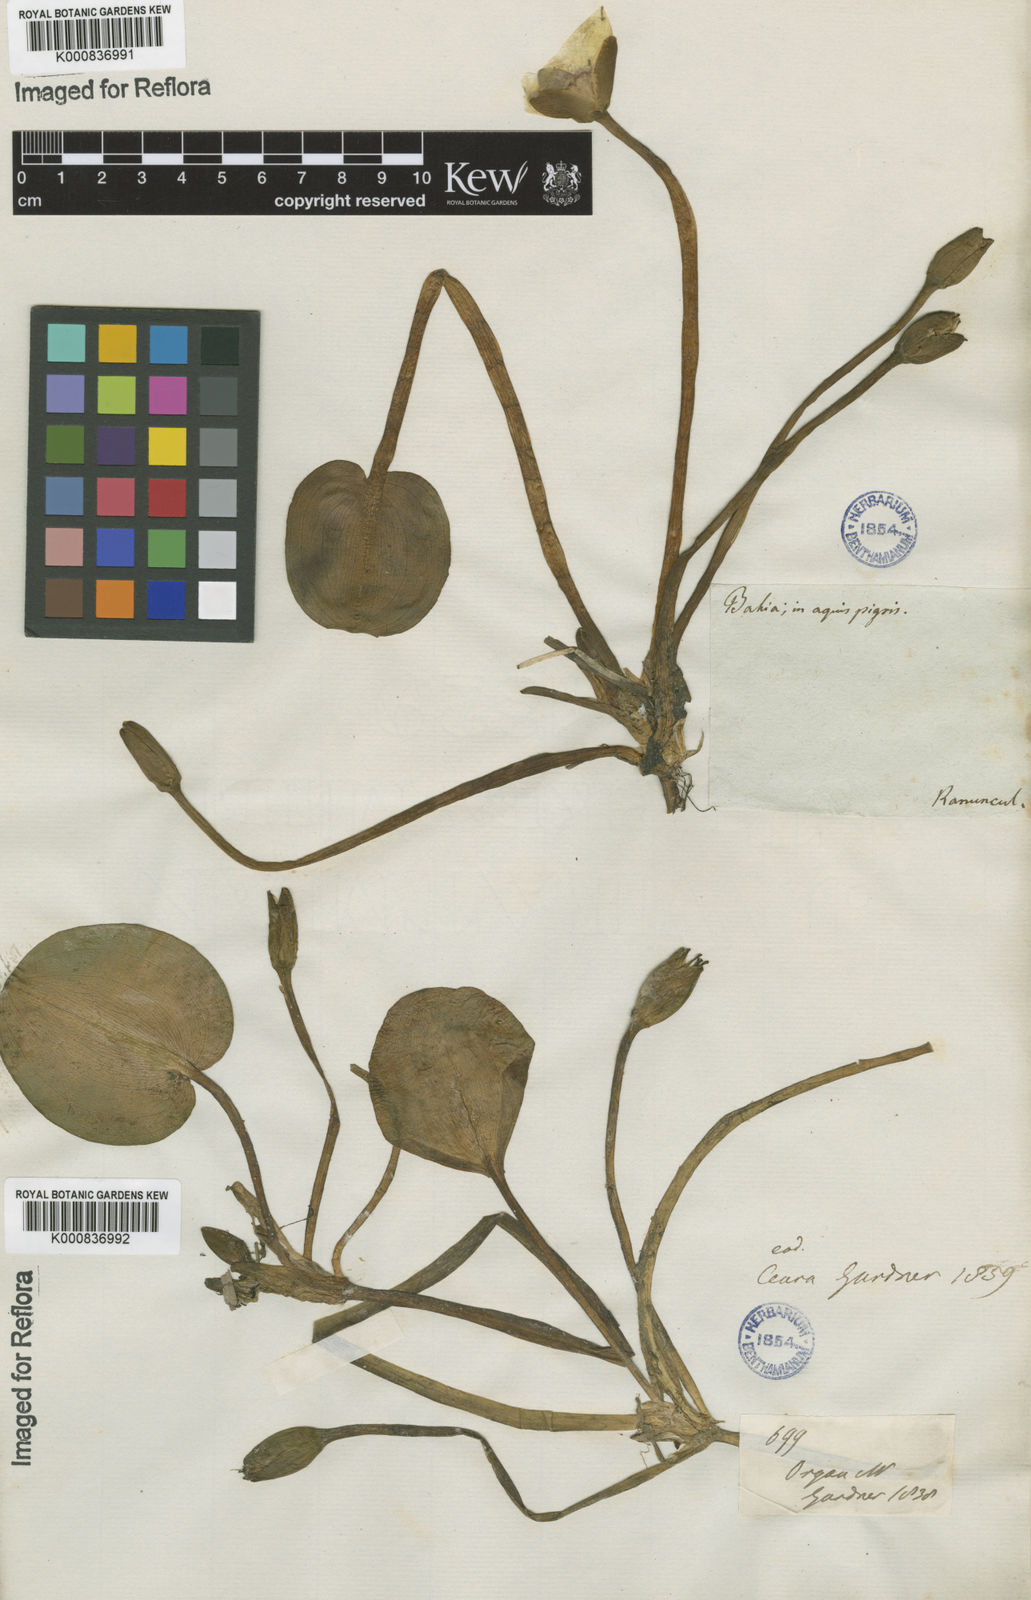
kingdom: Plantae
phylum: Tracheophyta
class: Liliopsida
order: Alismatales
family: Alismataceae
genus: Hydrocleys
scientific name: Hydrocleys nymphoides
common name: Water-poppy
